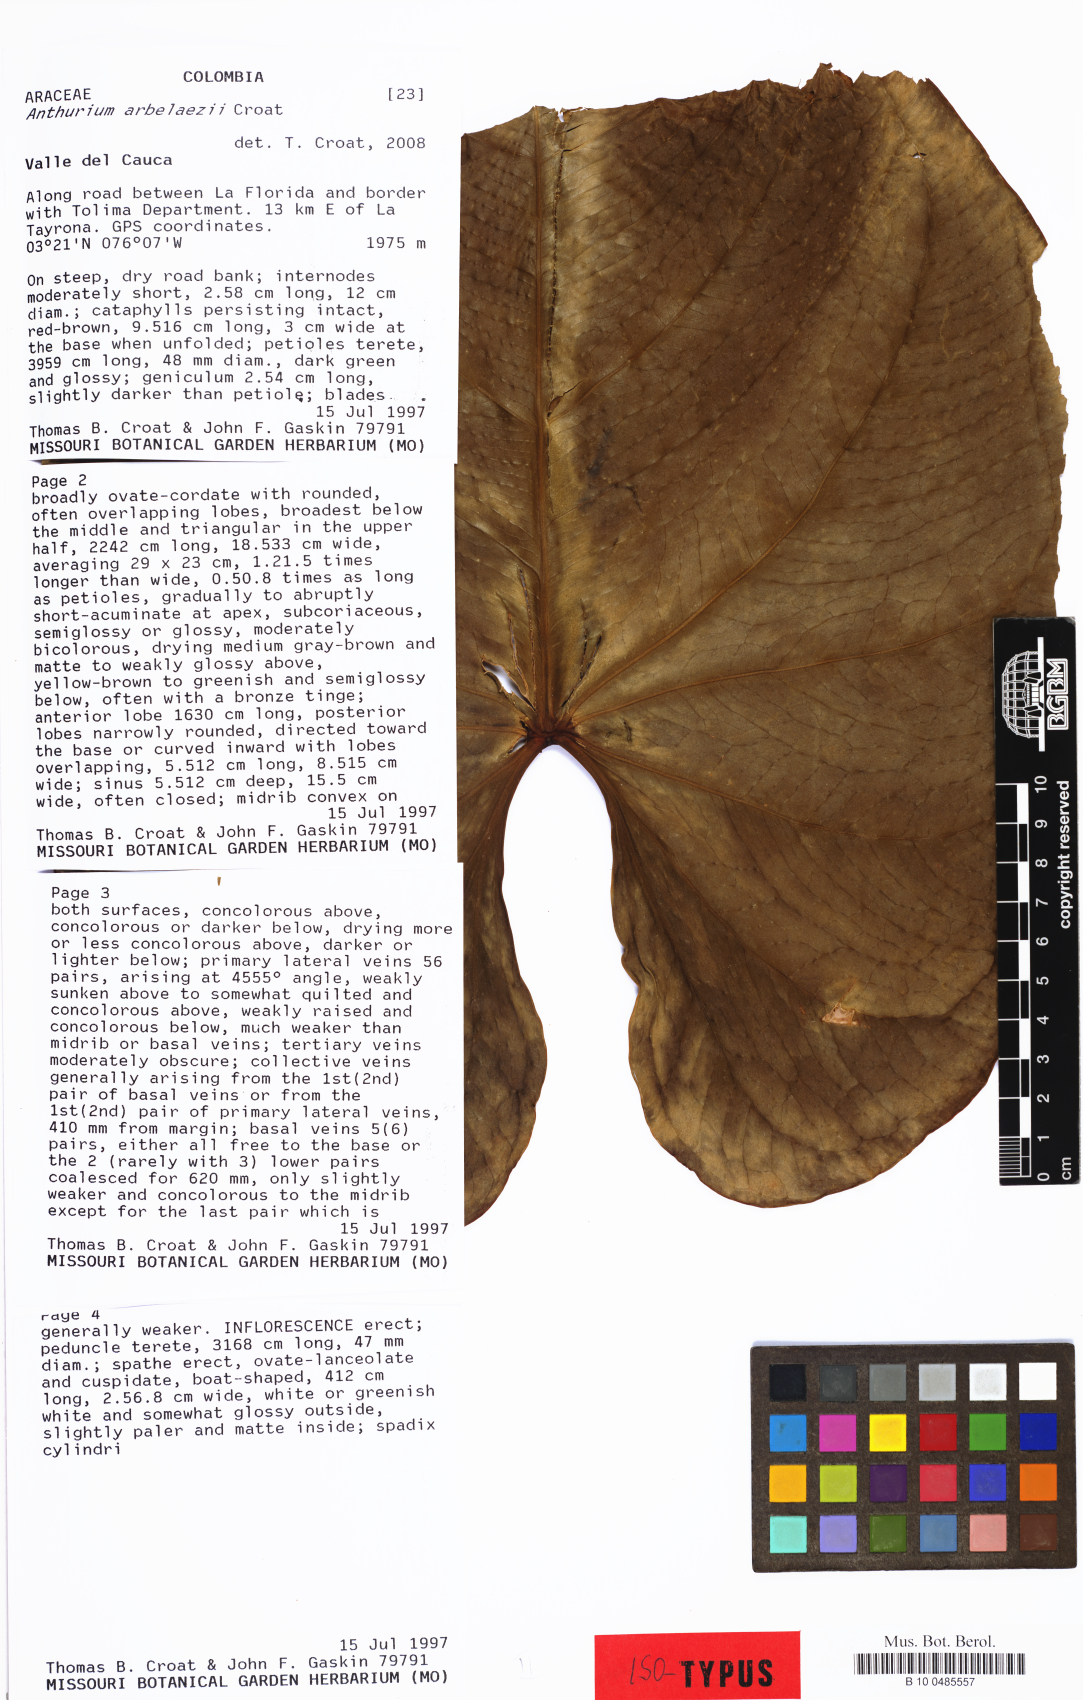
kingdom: Plantae
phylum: Tracheophyta
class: Liliopsida
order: Alismatales
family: Araceae
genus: Anthurium
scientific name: Anthurium arbelaezii
